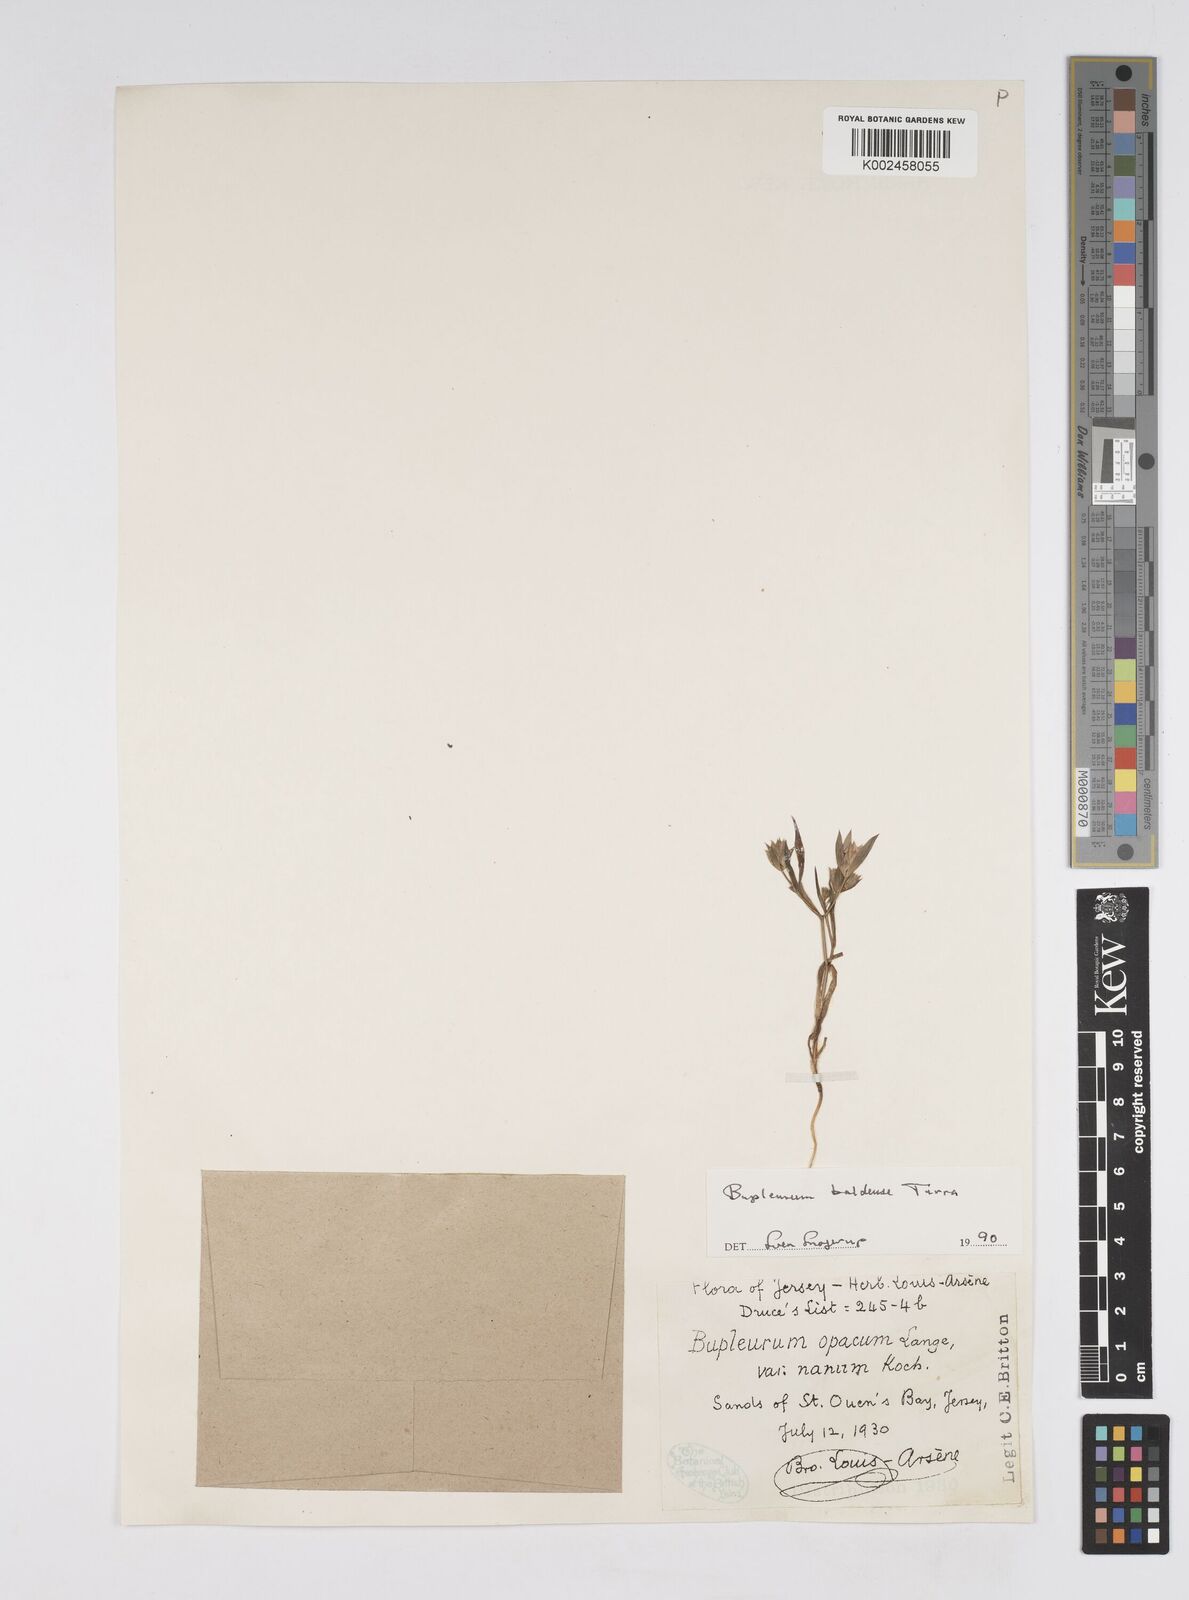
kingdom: Plantae
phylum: Tracheophyta
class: Magnoliopsida
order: Apiales
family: Apiaceae
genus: Bupleurum
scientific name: Bupleurum baldense
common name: Small hare's-ear
